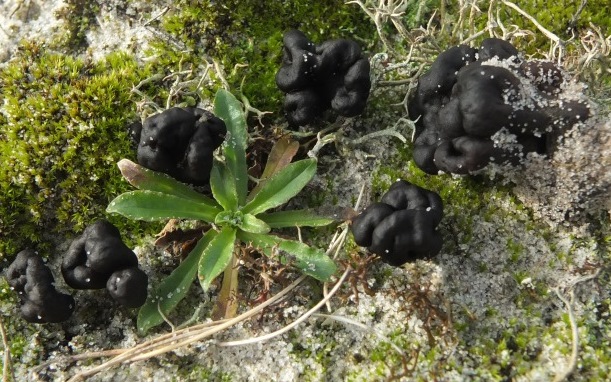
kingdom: Fungi
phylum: Ascomycota
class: Geoglossomycetes
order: Geoglossales
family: Geoglossaceae
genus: Sabuloglossum
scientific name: Sabuloglossum arenarium
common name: klit-jordtunge
